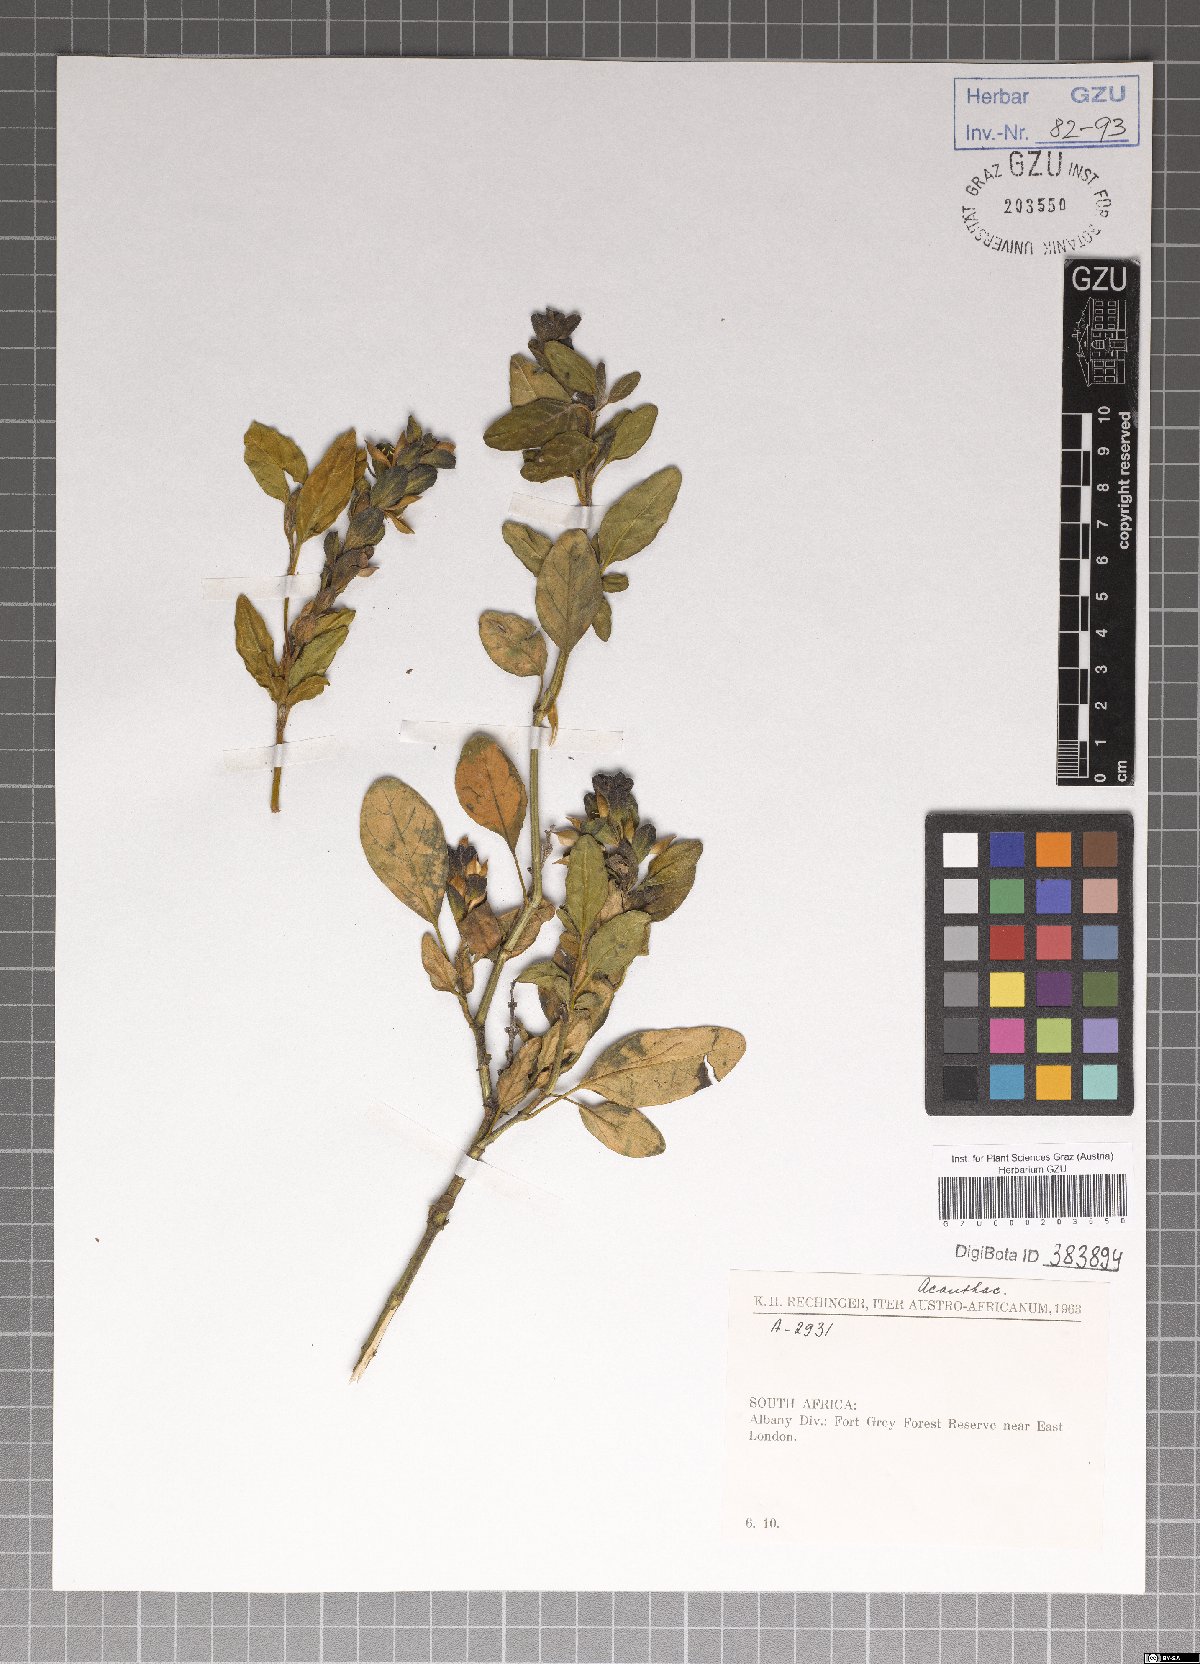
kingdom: Plantae
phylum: Tracheophyta
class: Magnoliopsida
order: Lamiales
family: Acanthaceae
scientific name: Acanthaceae
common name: Acanthaceae
